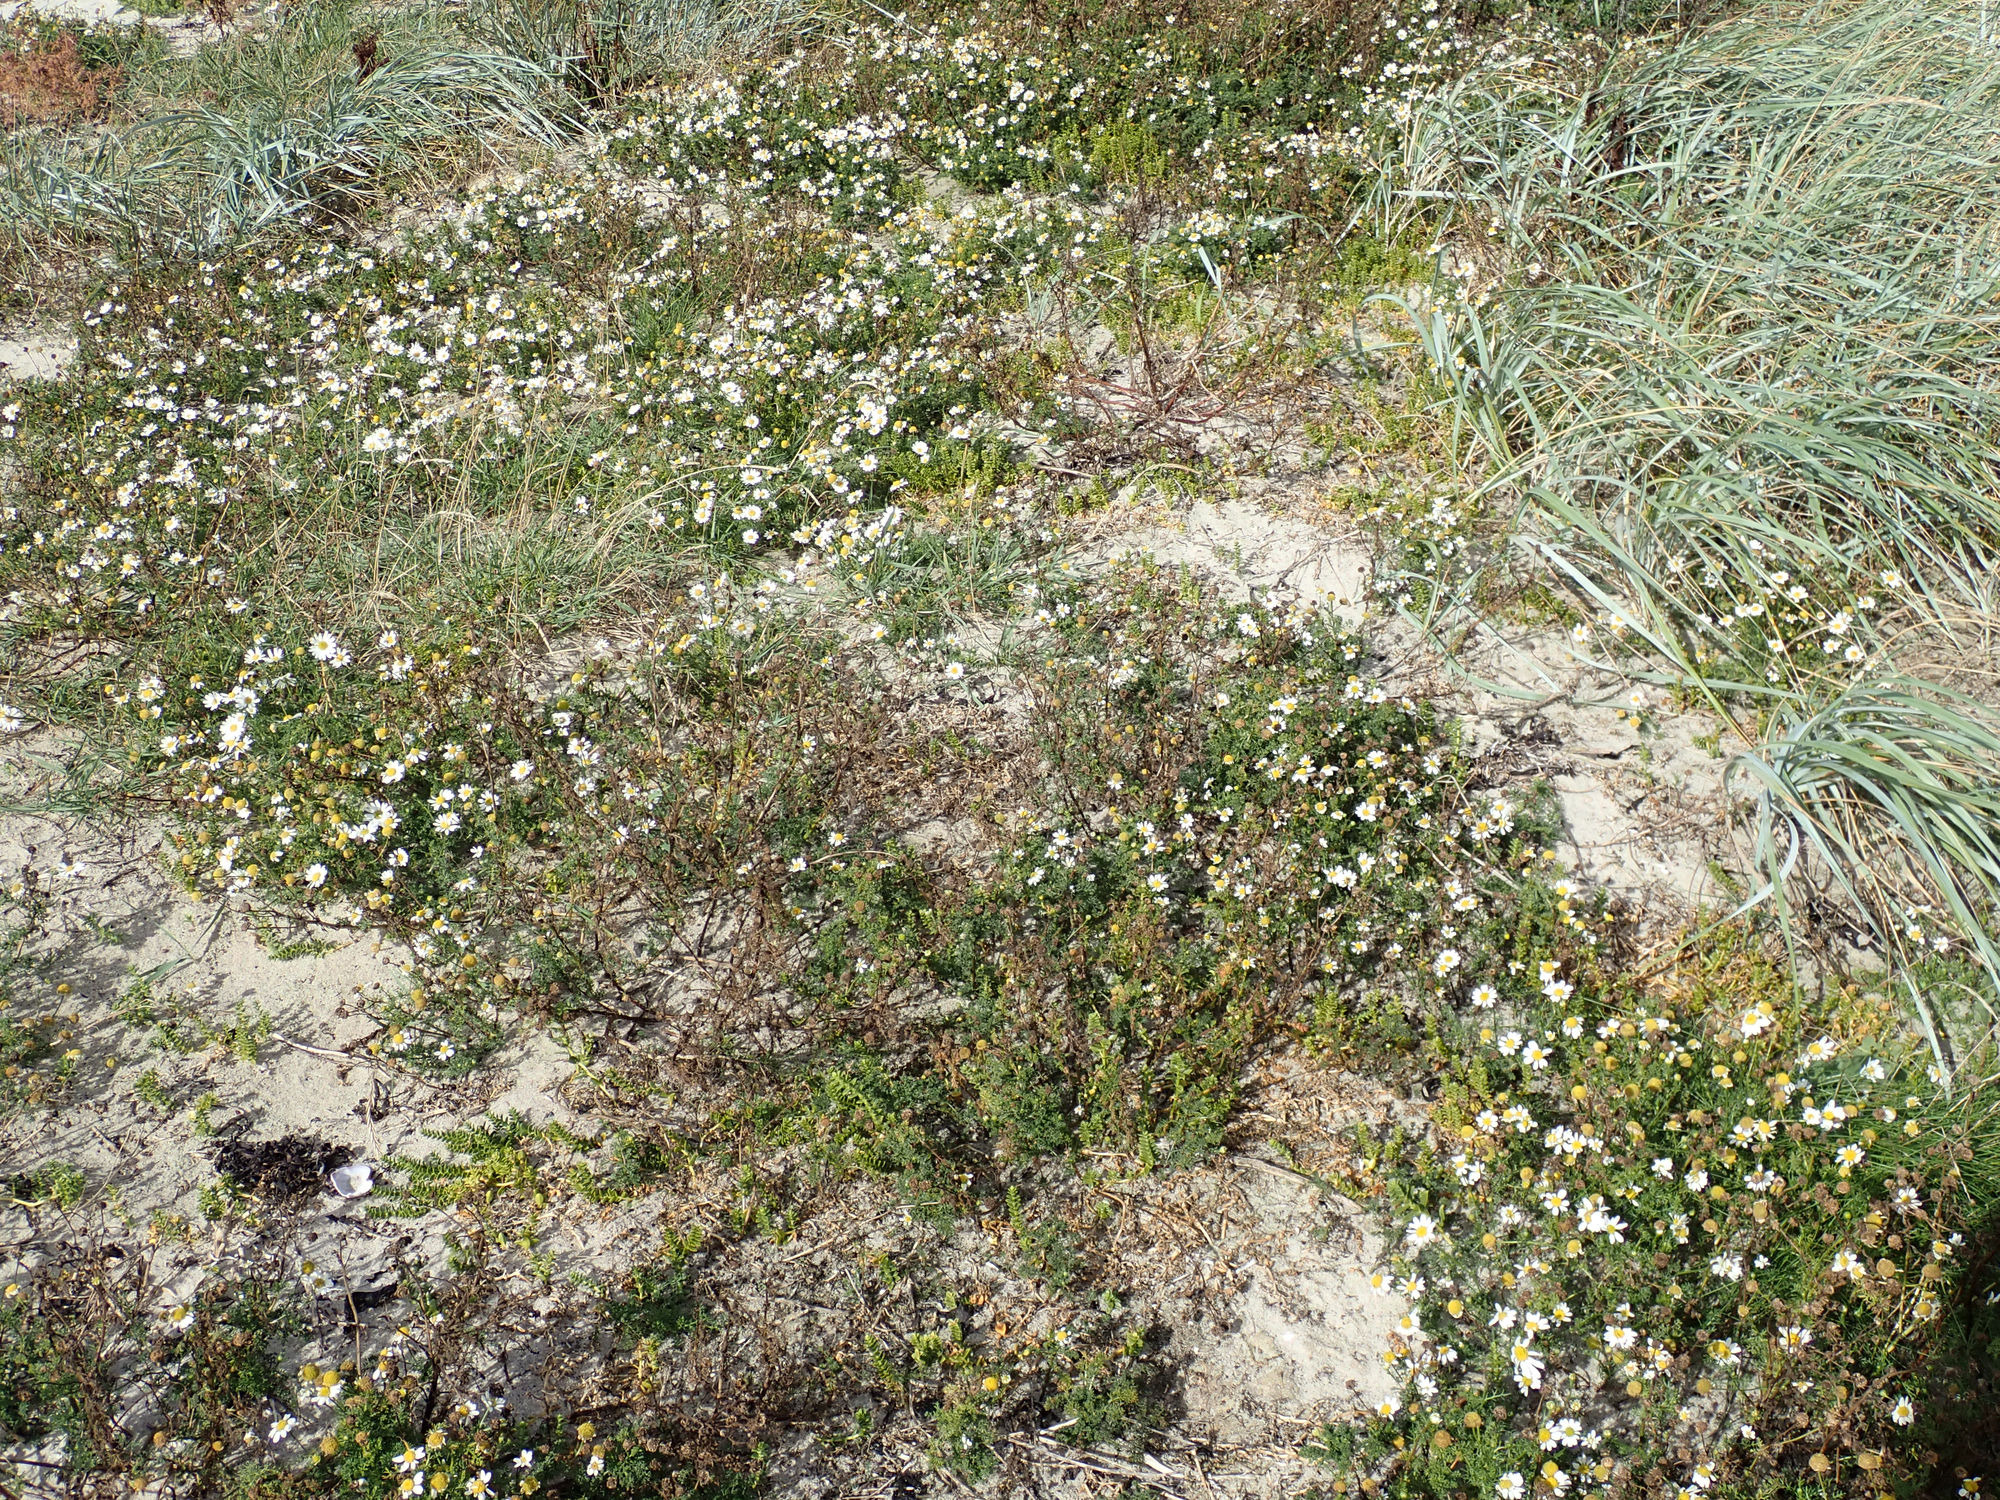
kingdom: Plantae
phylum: Tracheophyta
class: Magnoliopsida
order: Asterales
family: Asteraceae
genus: Tripleurospermum
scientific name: Tripleurospermum maritimum
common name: Strand-kamille
